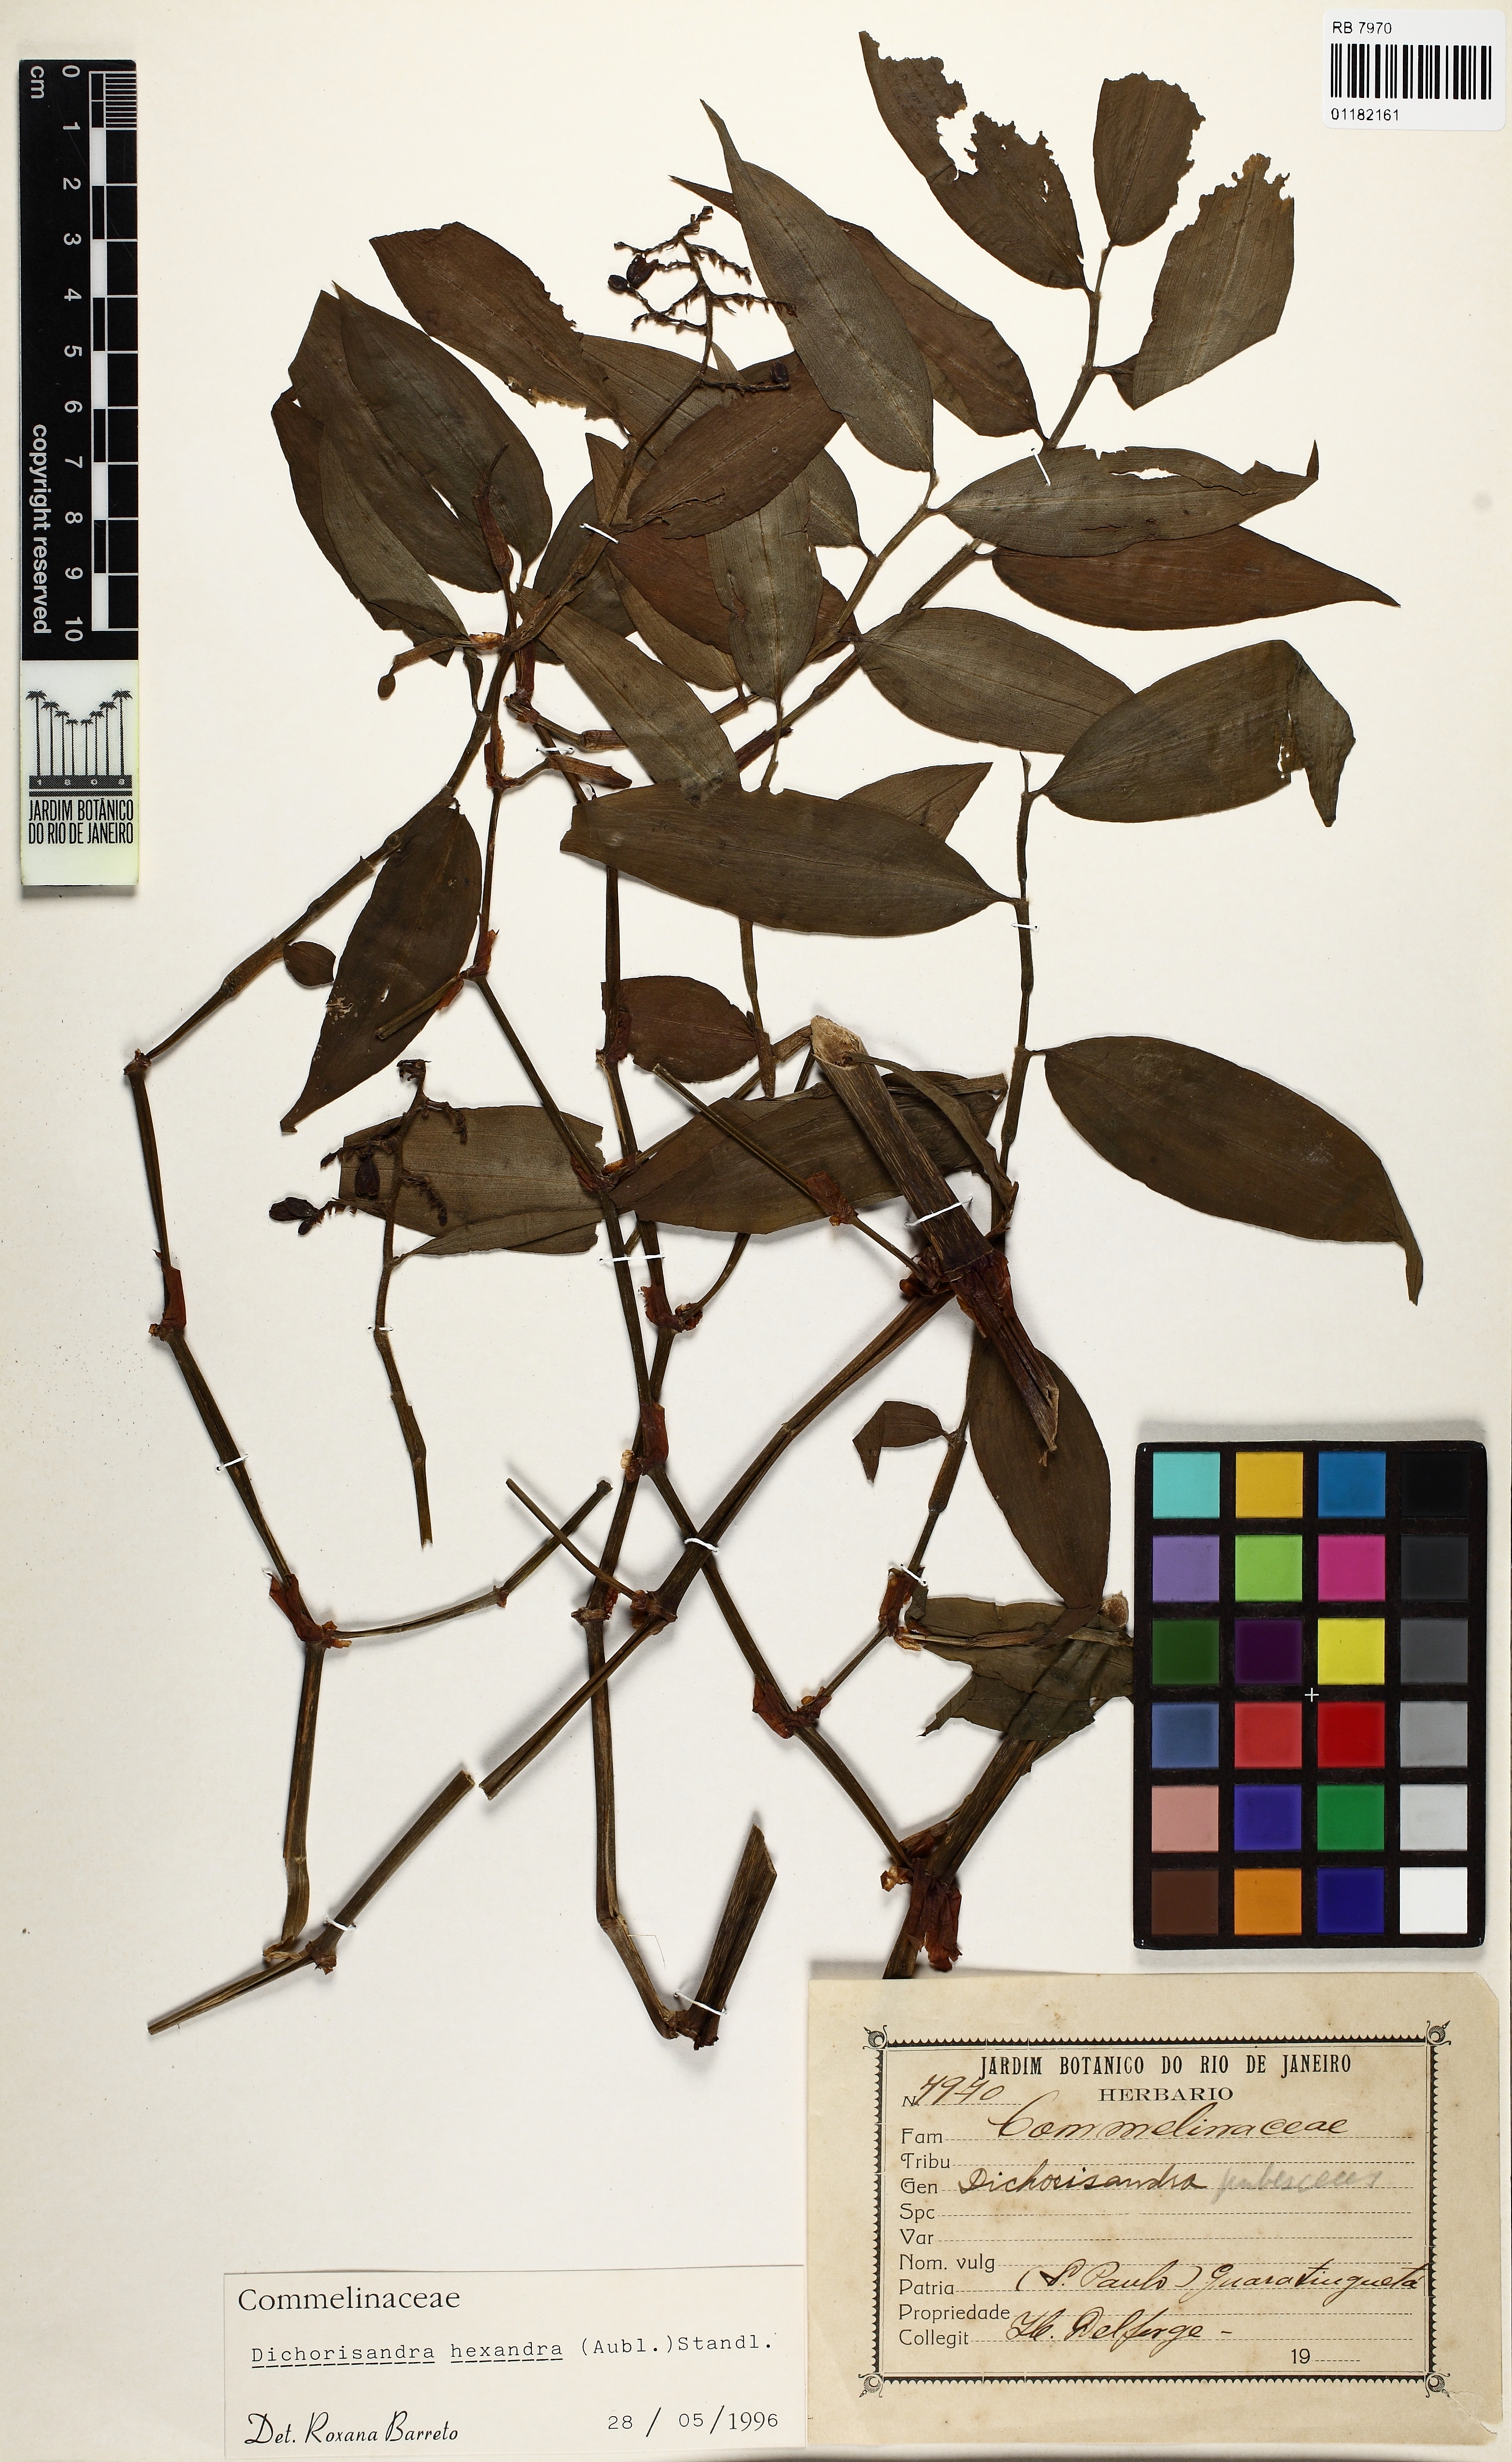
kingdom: Plantae
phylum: Tracheophyta
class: Liliopsida
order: Commelinales
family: Commelinaceae
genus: Dichorisandra
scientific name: Dichorisandra hexandra
